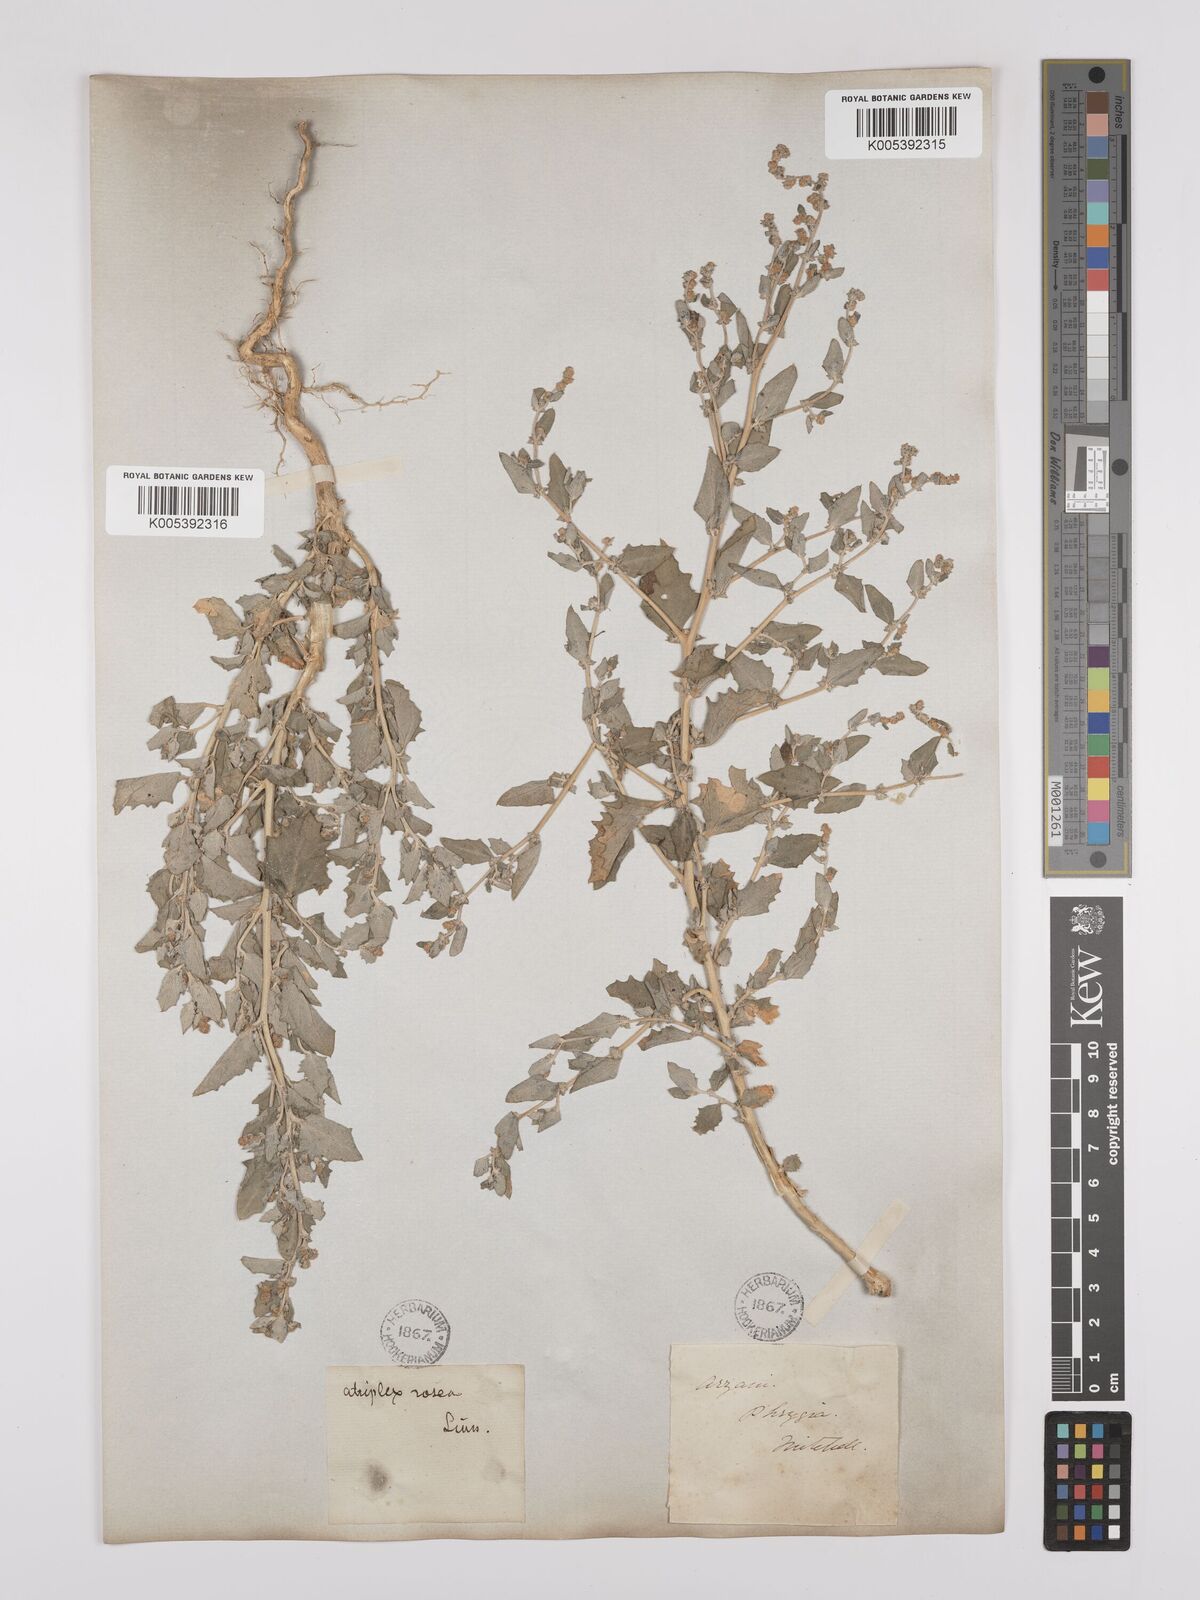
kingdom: Plantae
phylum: Tracheophyta
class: Magnoliopsida
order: Caryophyllales
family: Amaranthaceae
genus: Atriplex
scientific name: Atriplex
